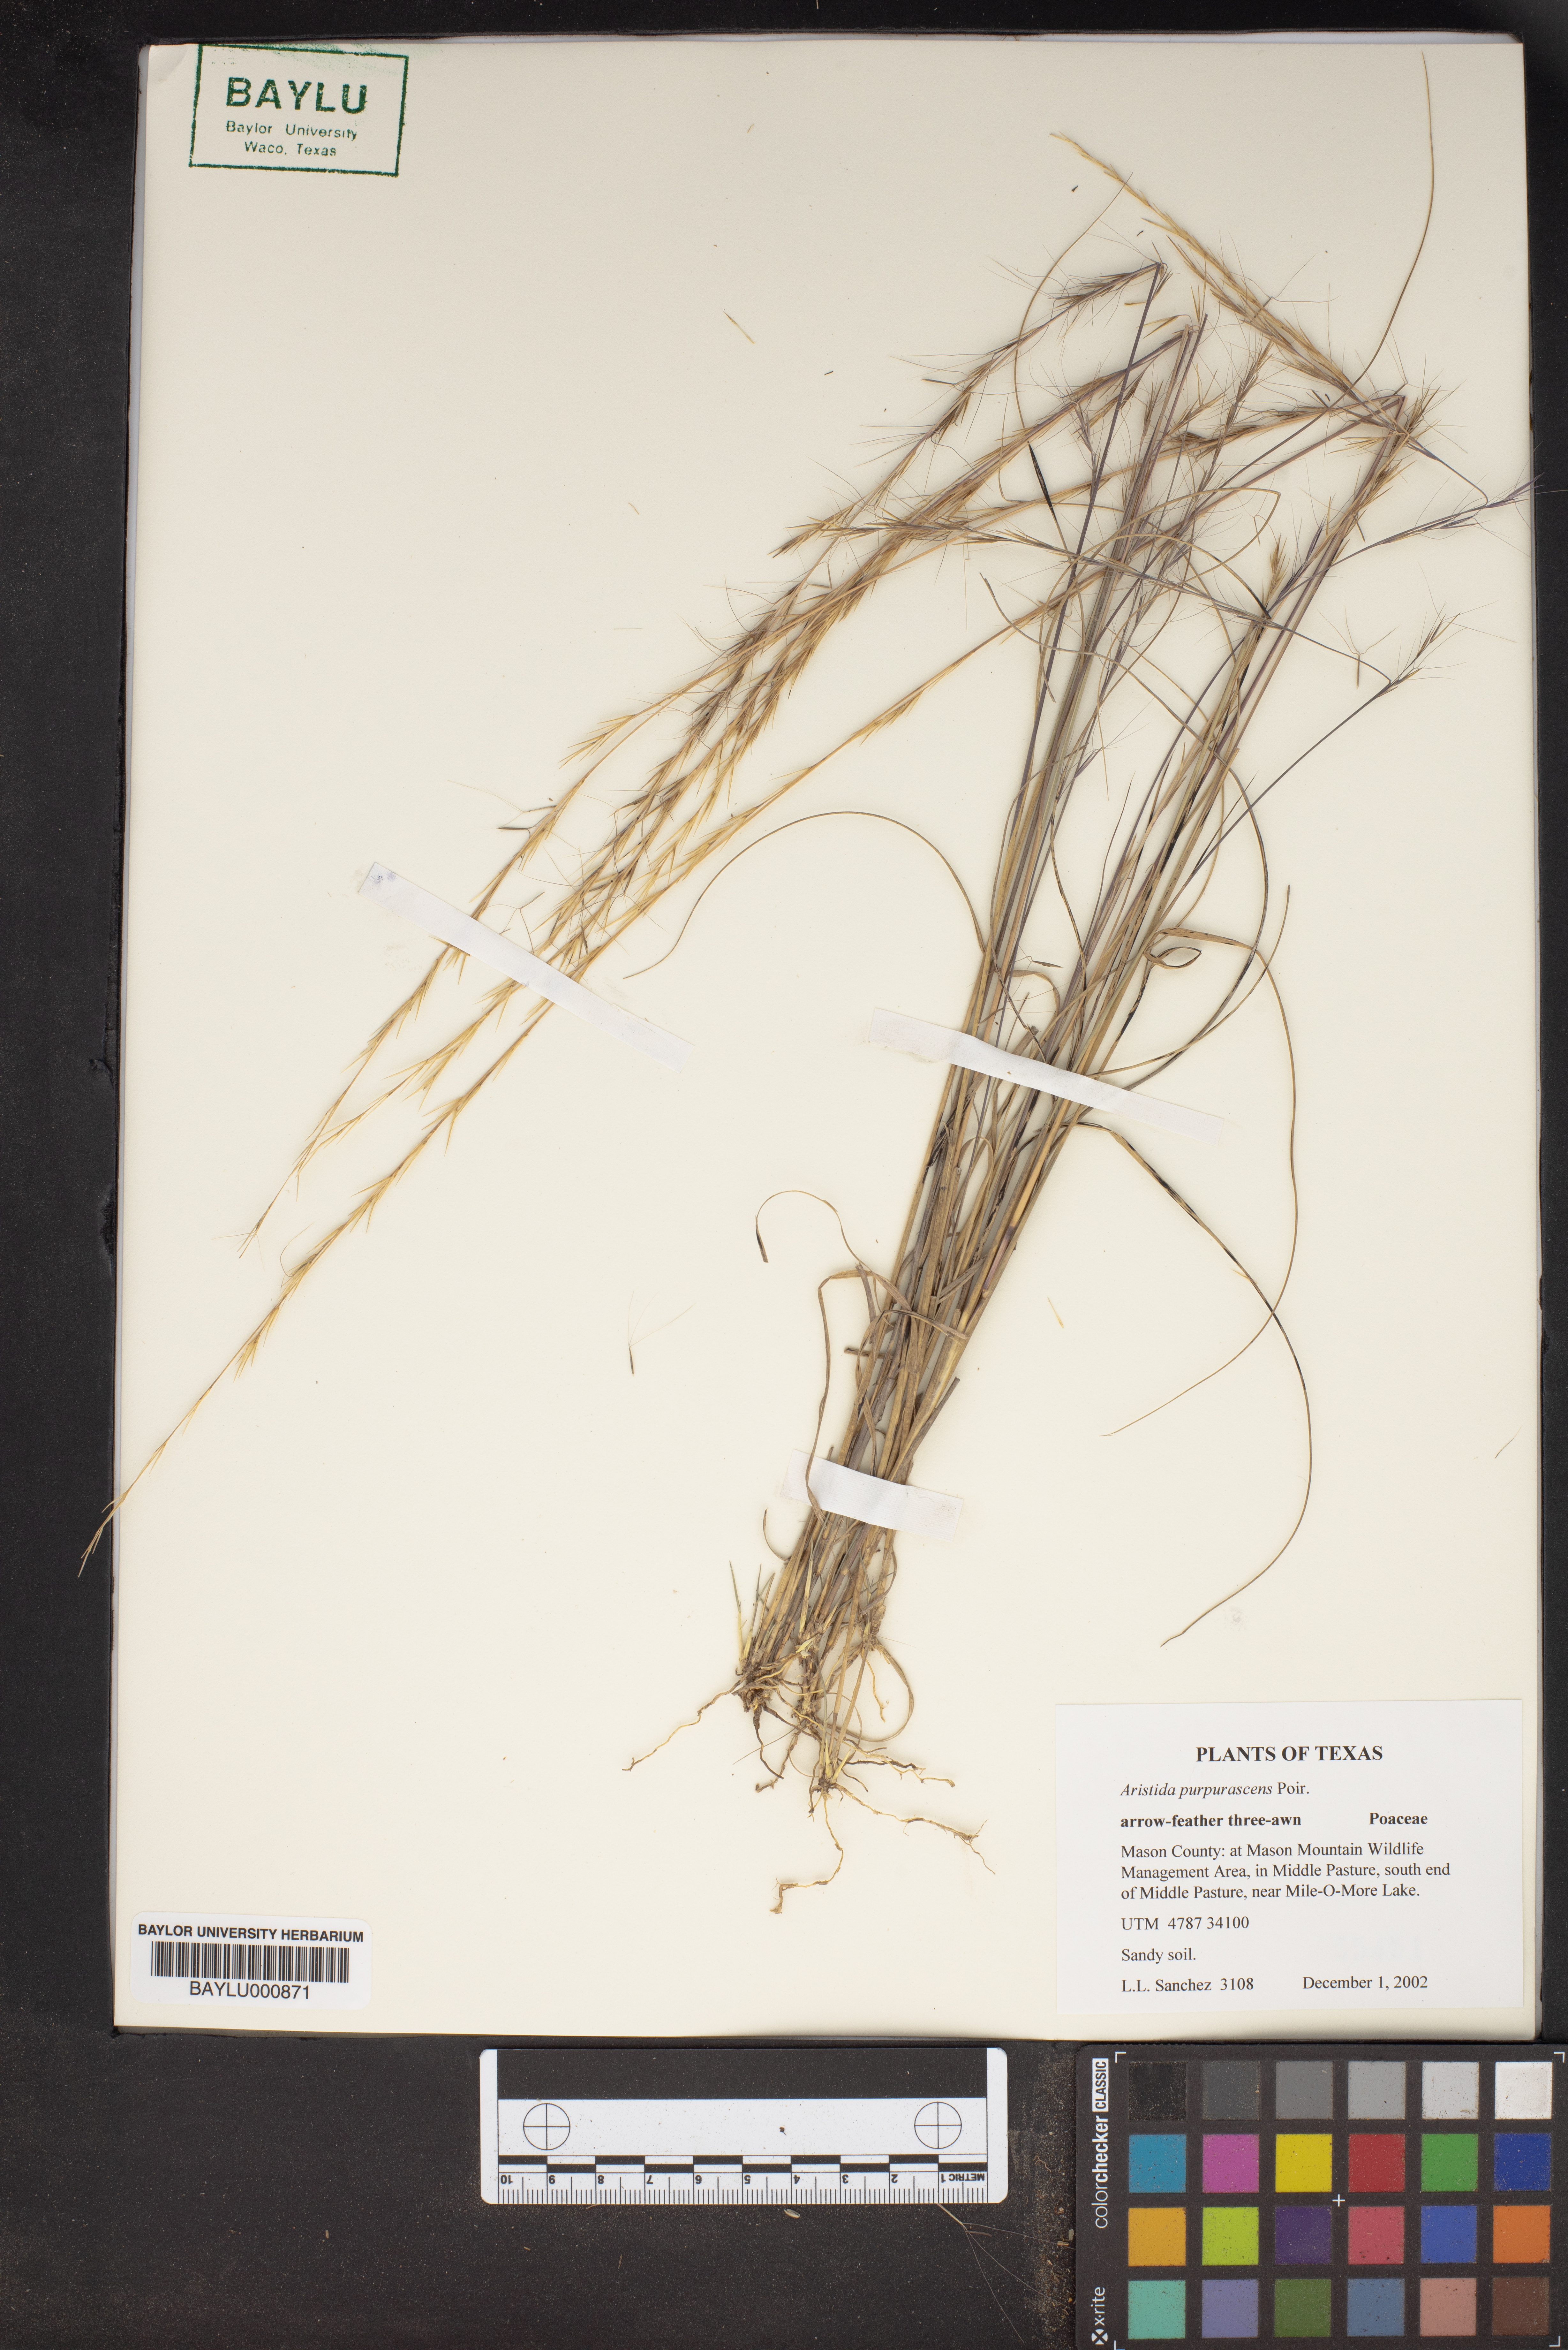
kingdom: Plantae
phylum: Tracheophyta
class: Liliopsida
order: Poales
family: Poaceae
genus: Aristida
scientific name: Aristida purpurascens
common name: Arrow-feather
